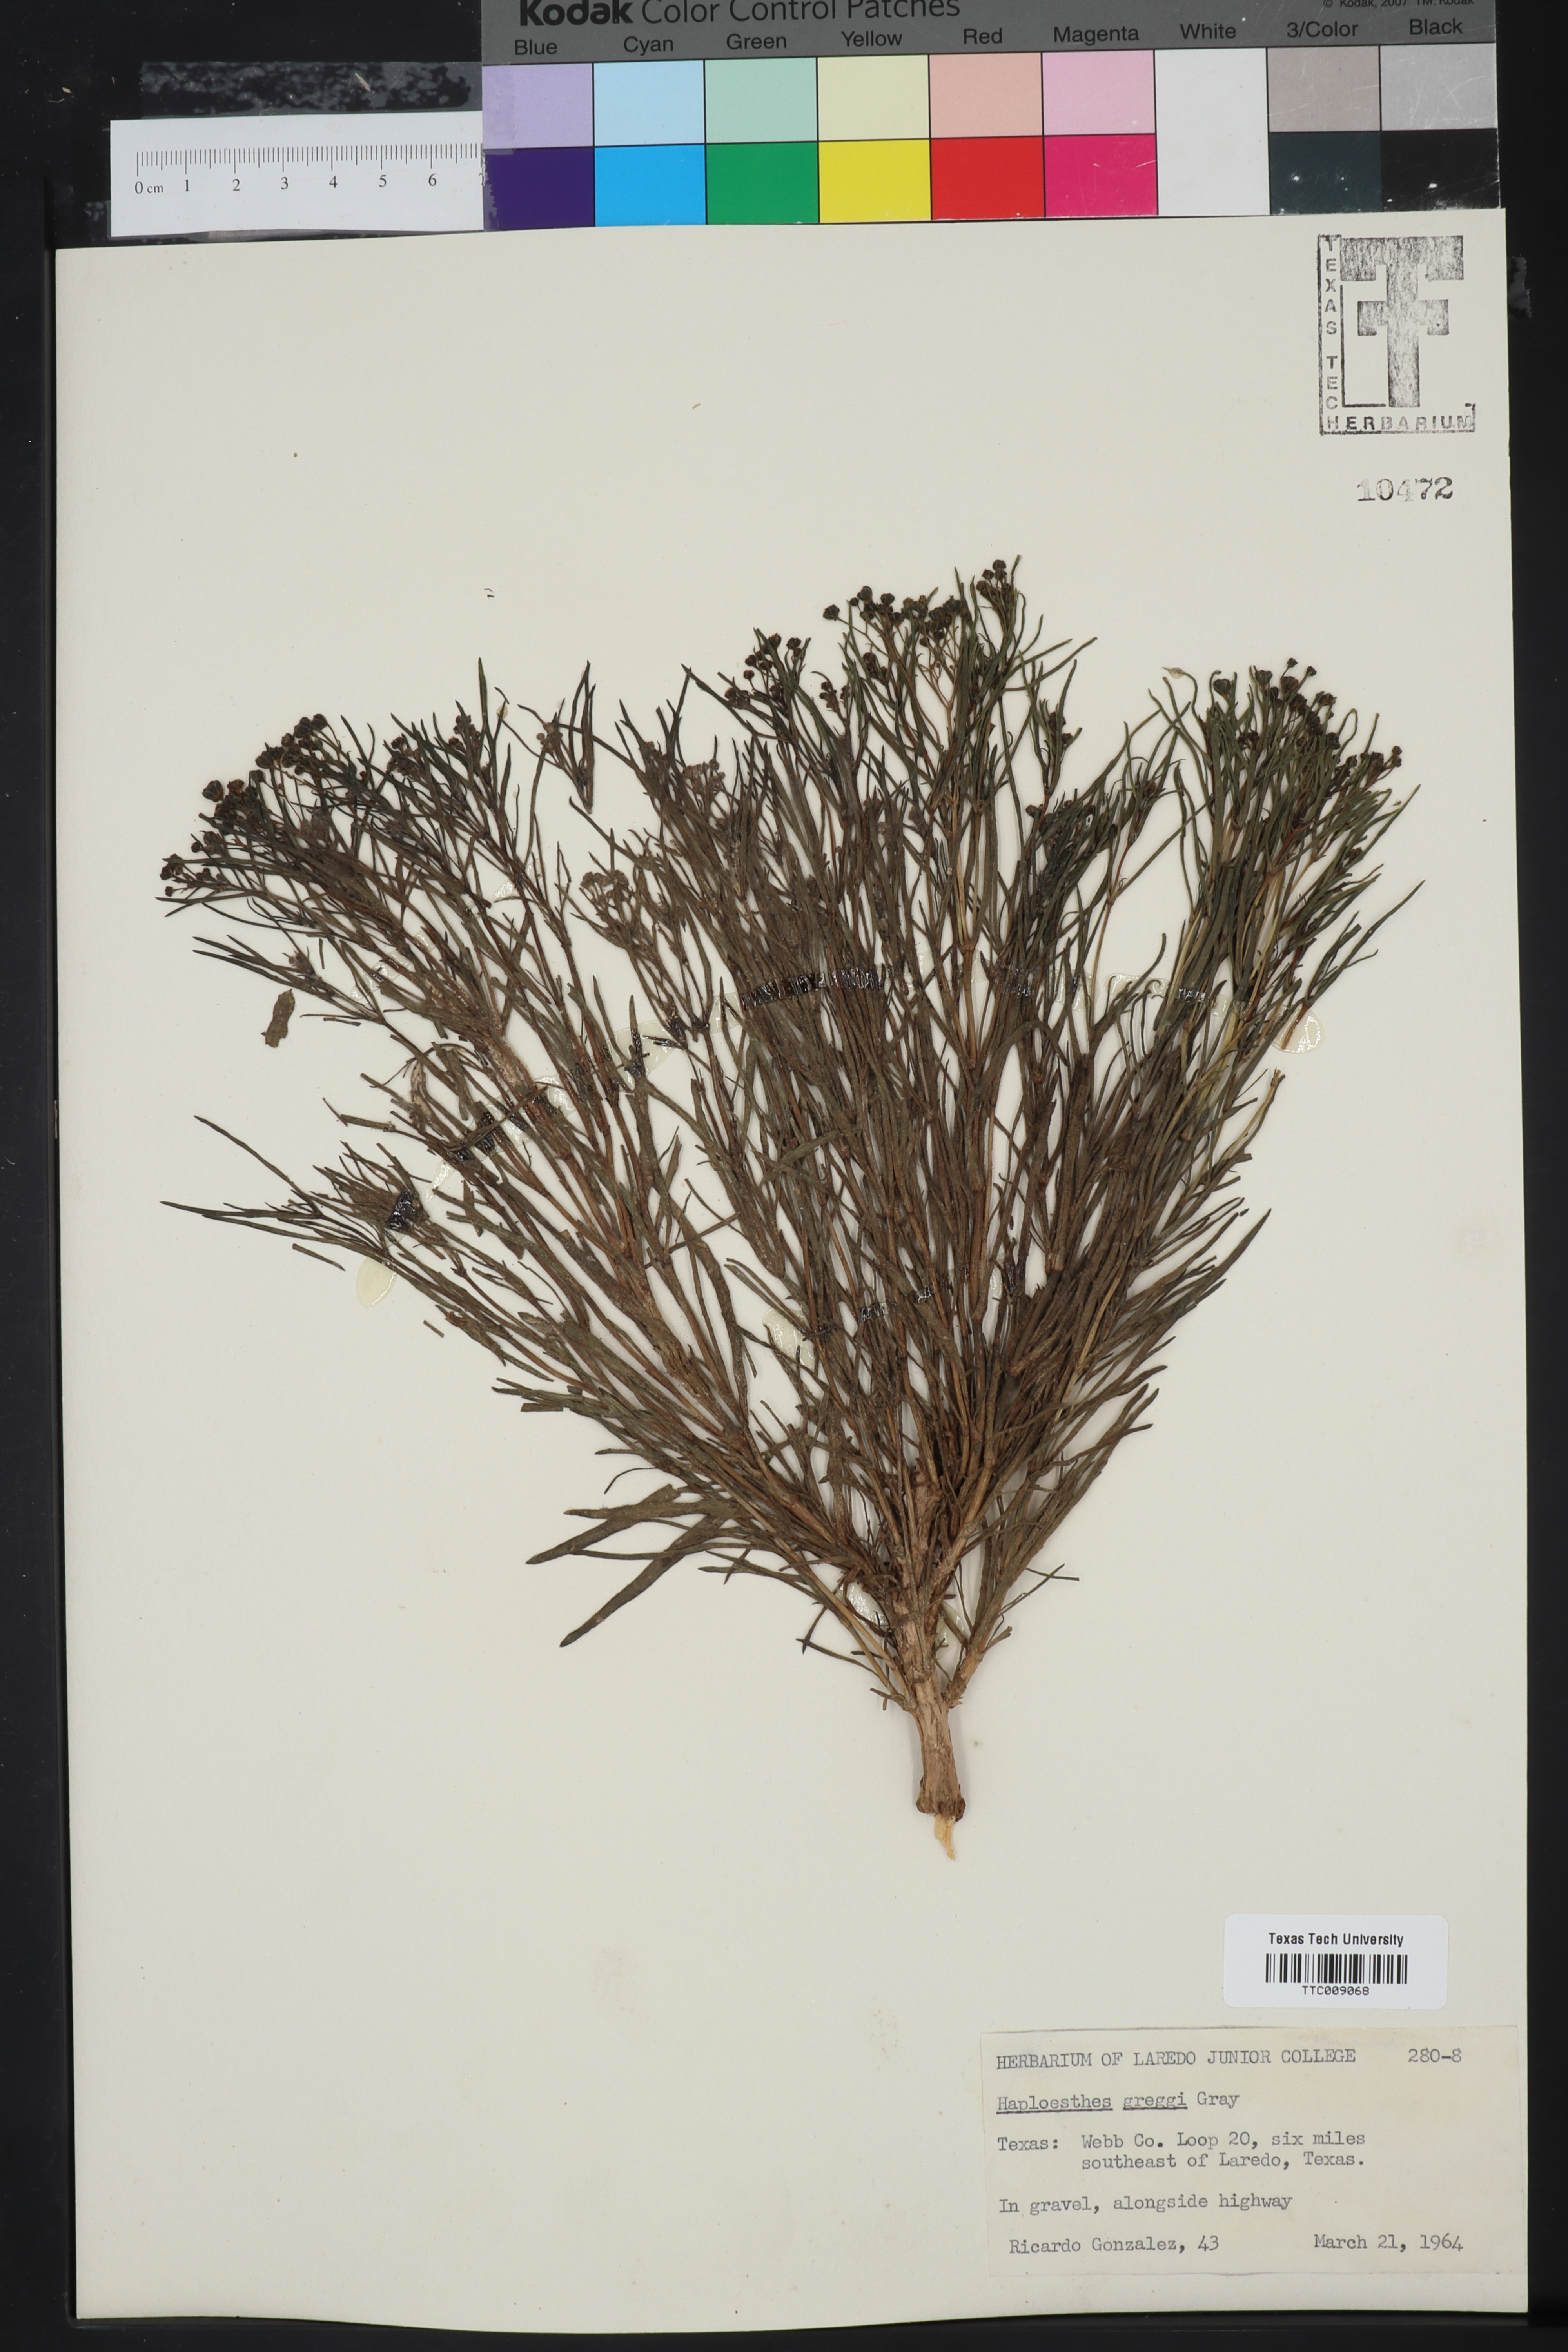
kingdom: Plantae
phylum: Tracheophyta
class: Magnoliopsida
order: Asterales
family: Asteraceae
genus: Haploesthes
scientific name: Haploesthes greggii
